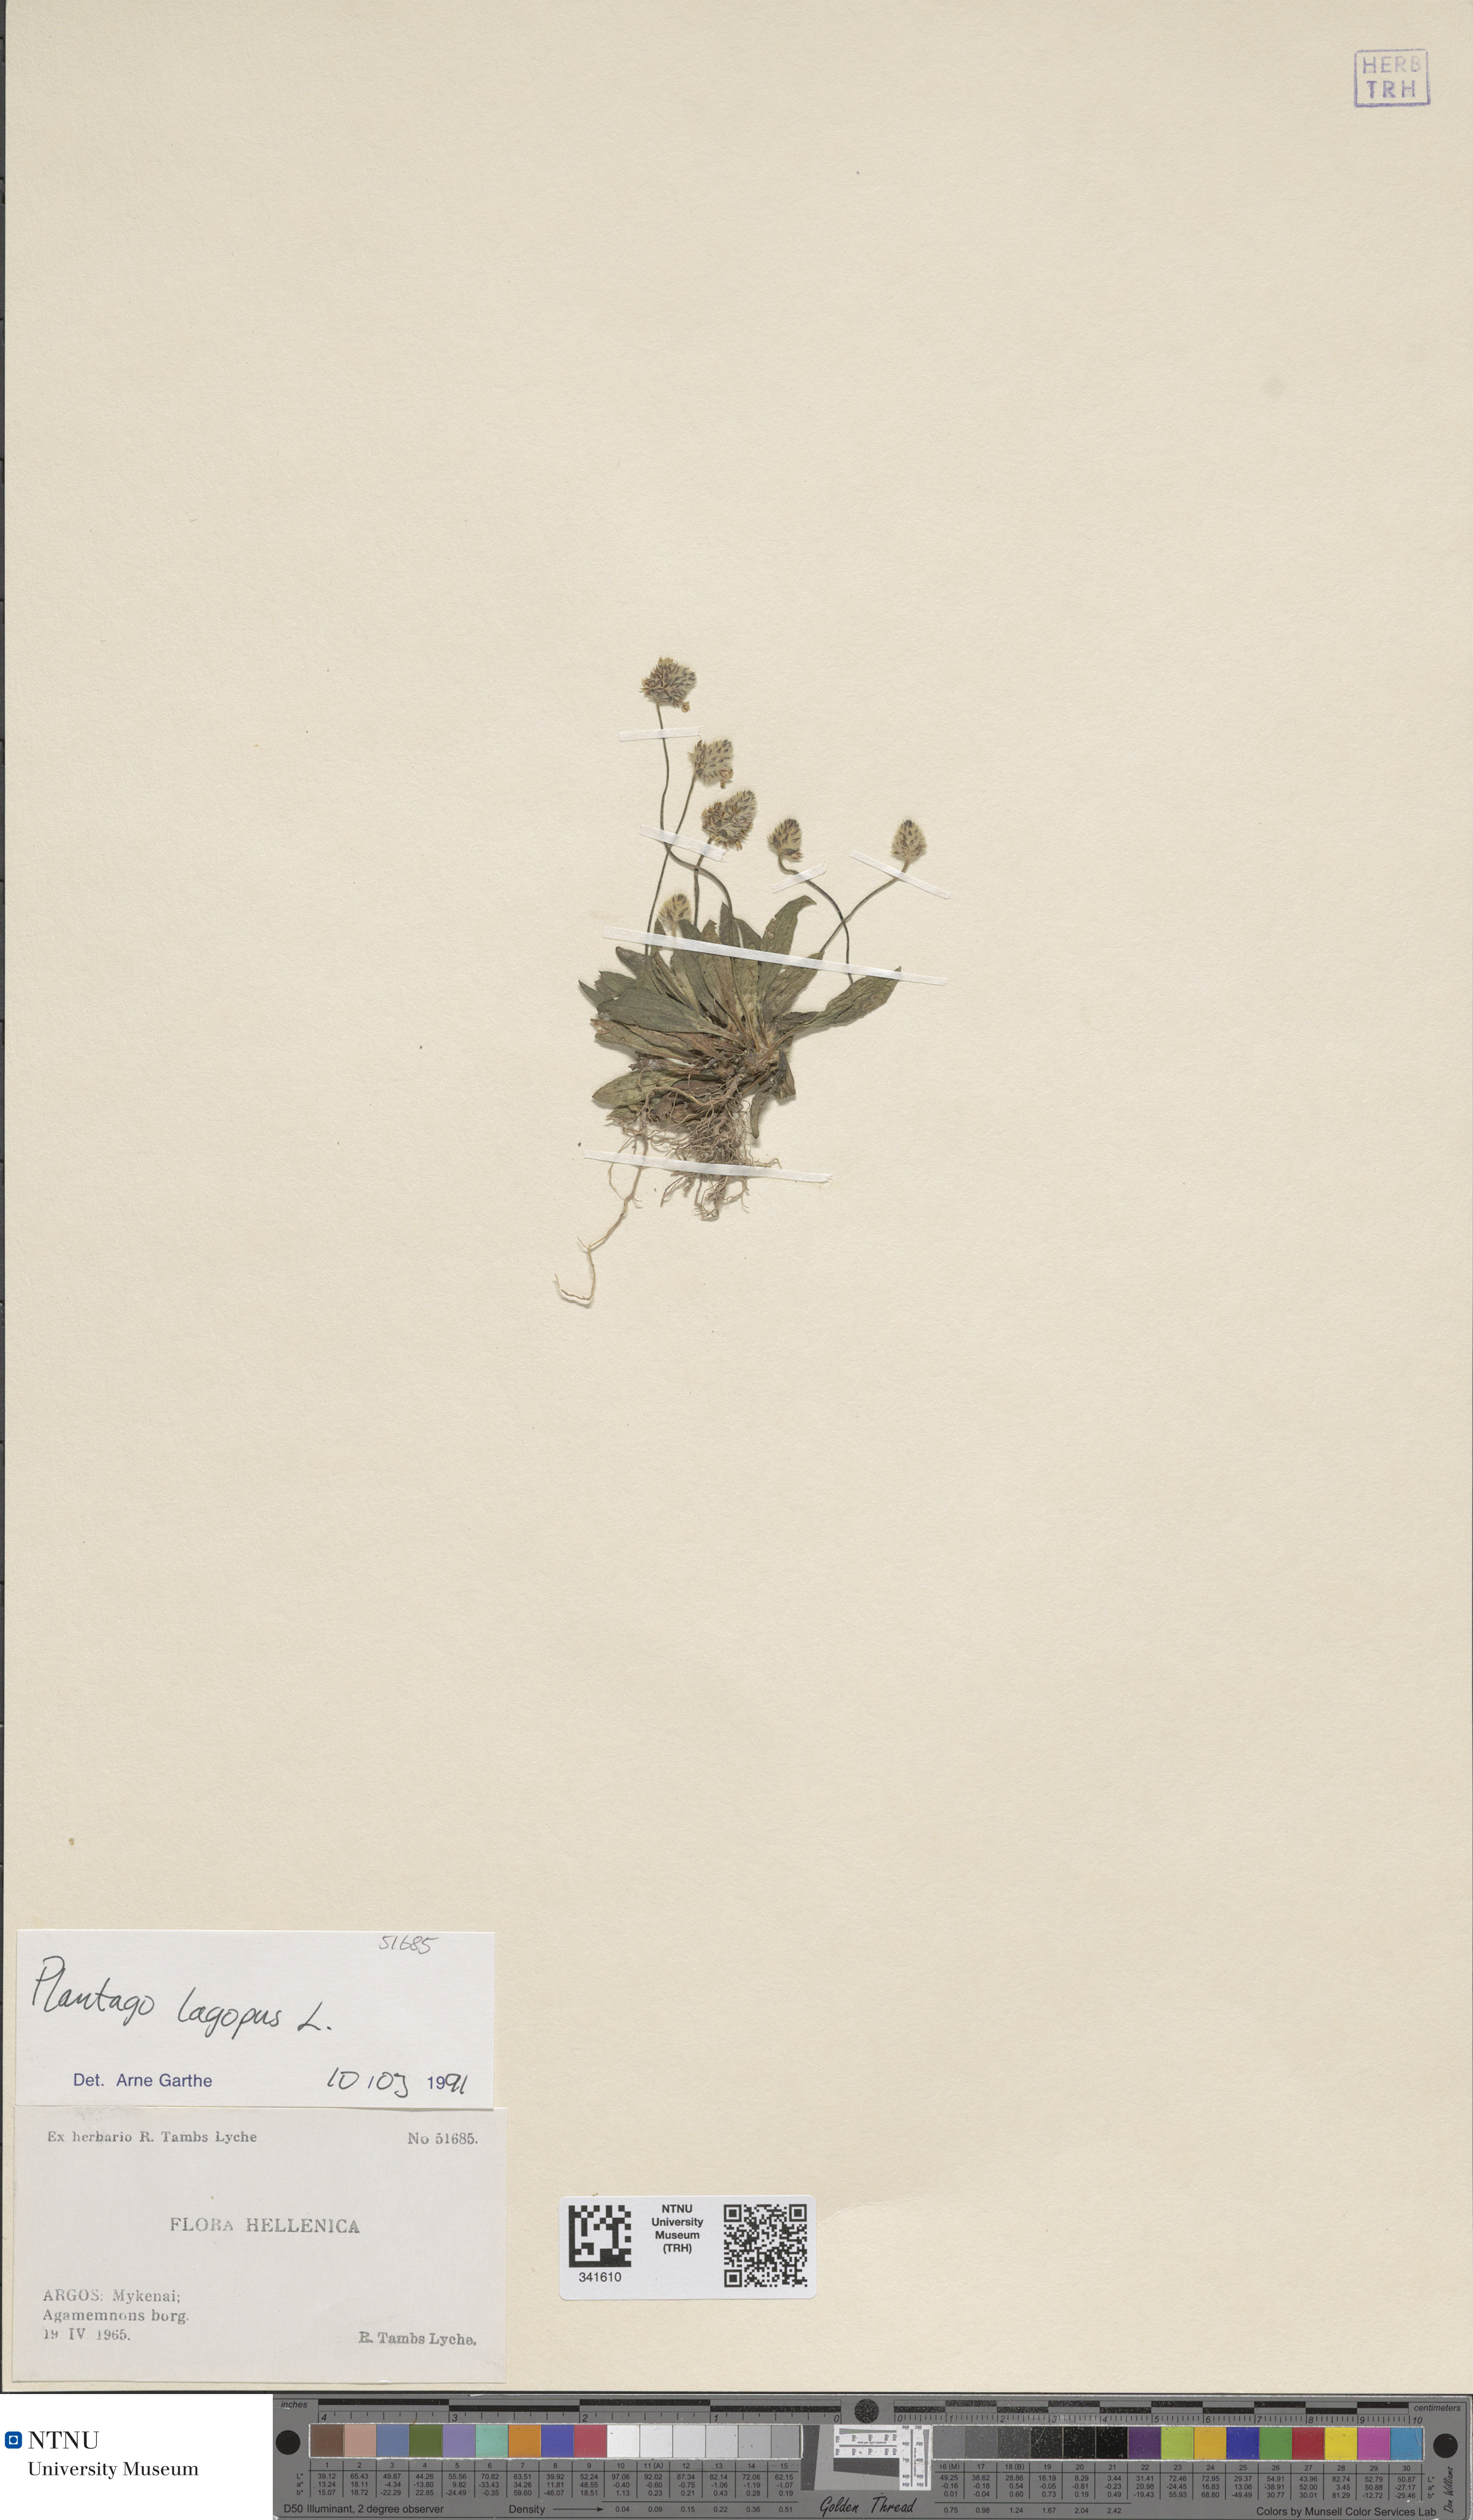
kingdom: Plantae
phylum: Tracheophyta
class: Magnoliopsida
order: Lamiales
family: Plantaginaceae
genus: Plantago
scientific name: Plantago lagopus
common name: Hare-foot plantain
